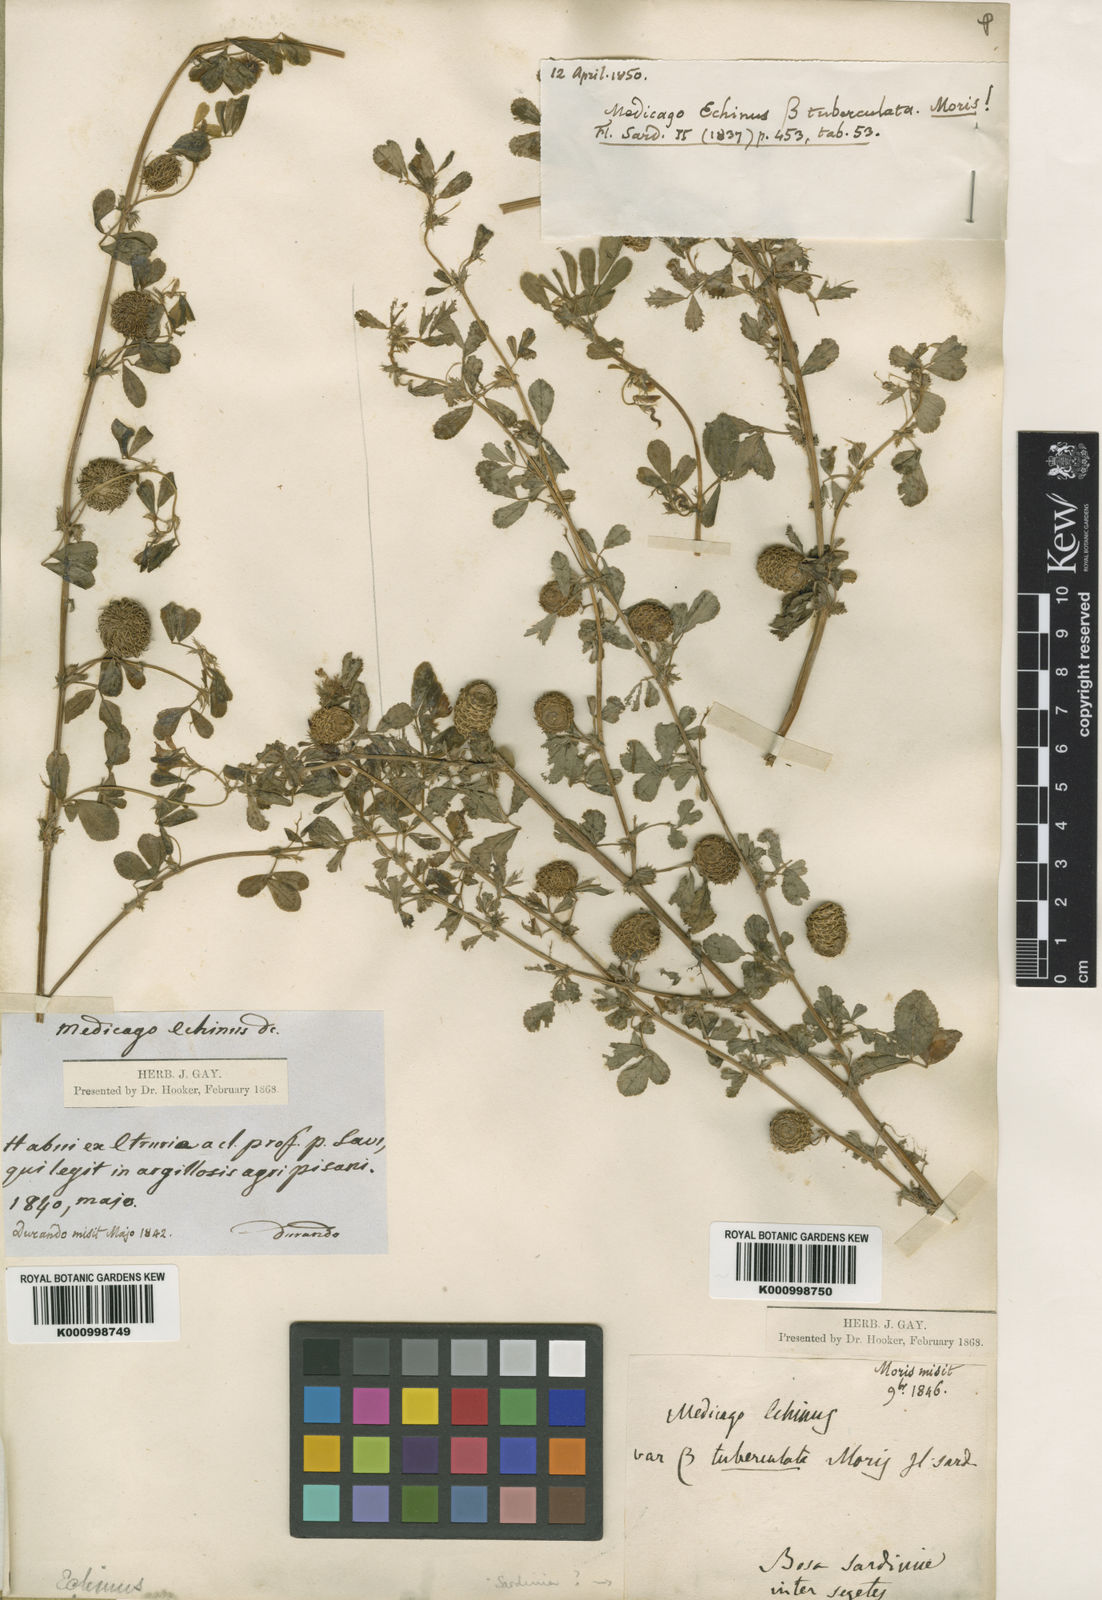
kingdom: Plantae
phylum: Tracheophyta
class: Magnoliopsida
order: Fabales
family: Fabaceae
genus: Medicago
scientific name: Medicago intertexta
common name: Hedgehog medick
